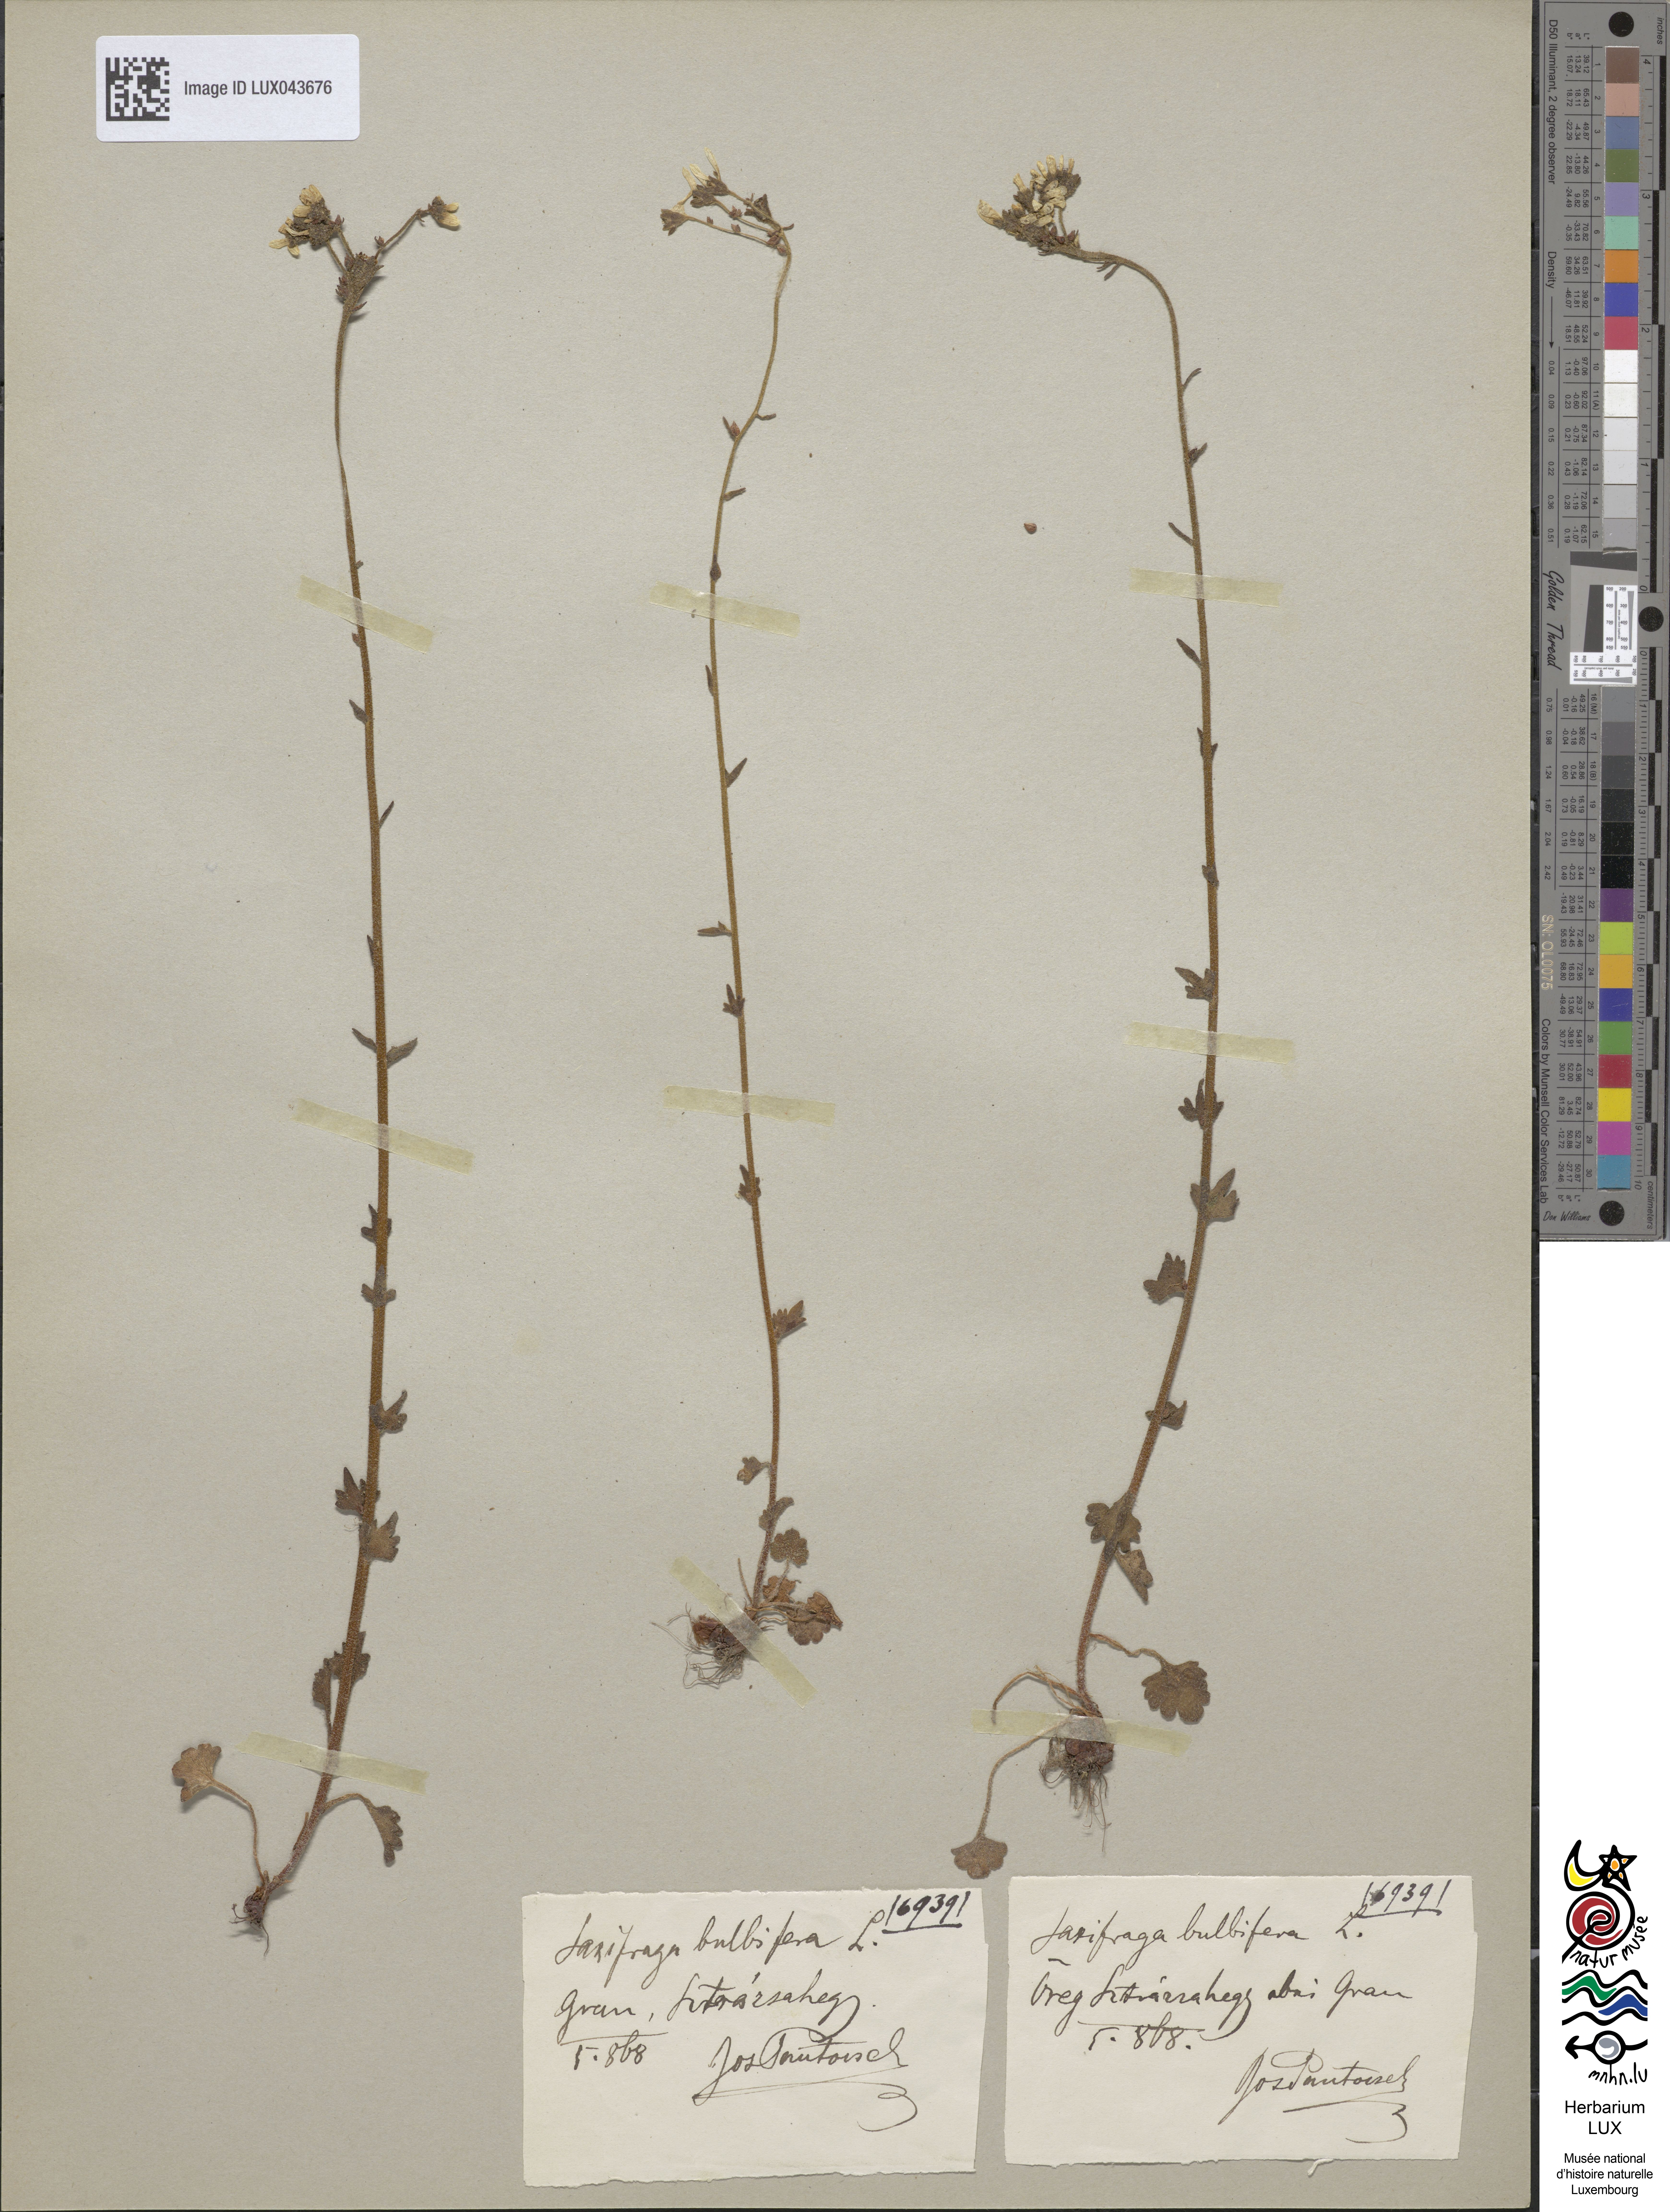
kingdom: Plantae
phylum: Tracheophyta
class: Magnoliopsida
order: Saxifragales
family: Saxifragaceae
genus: Saxifraga
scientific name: Saxifraga bulbifera
